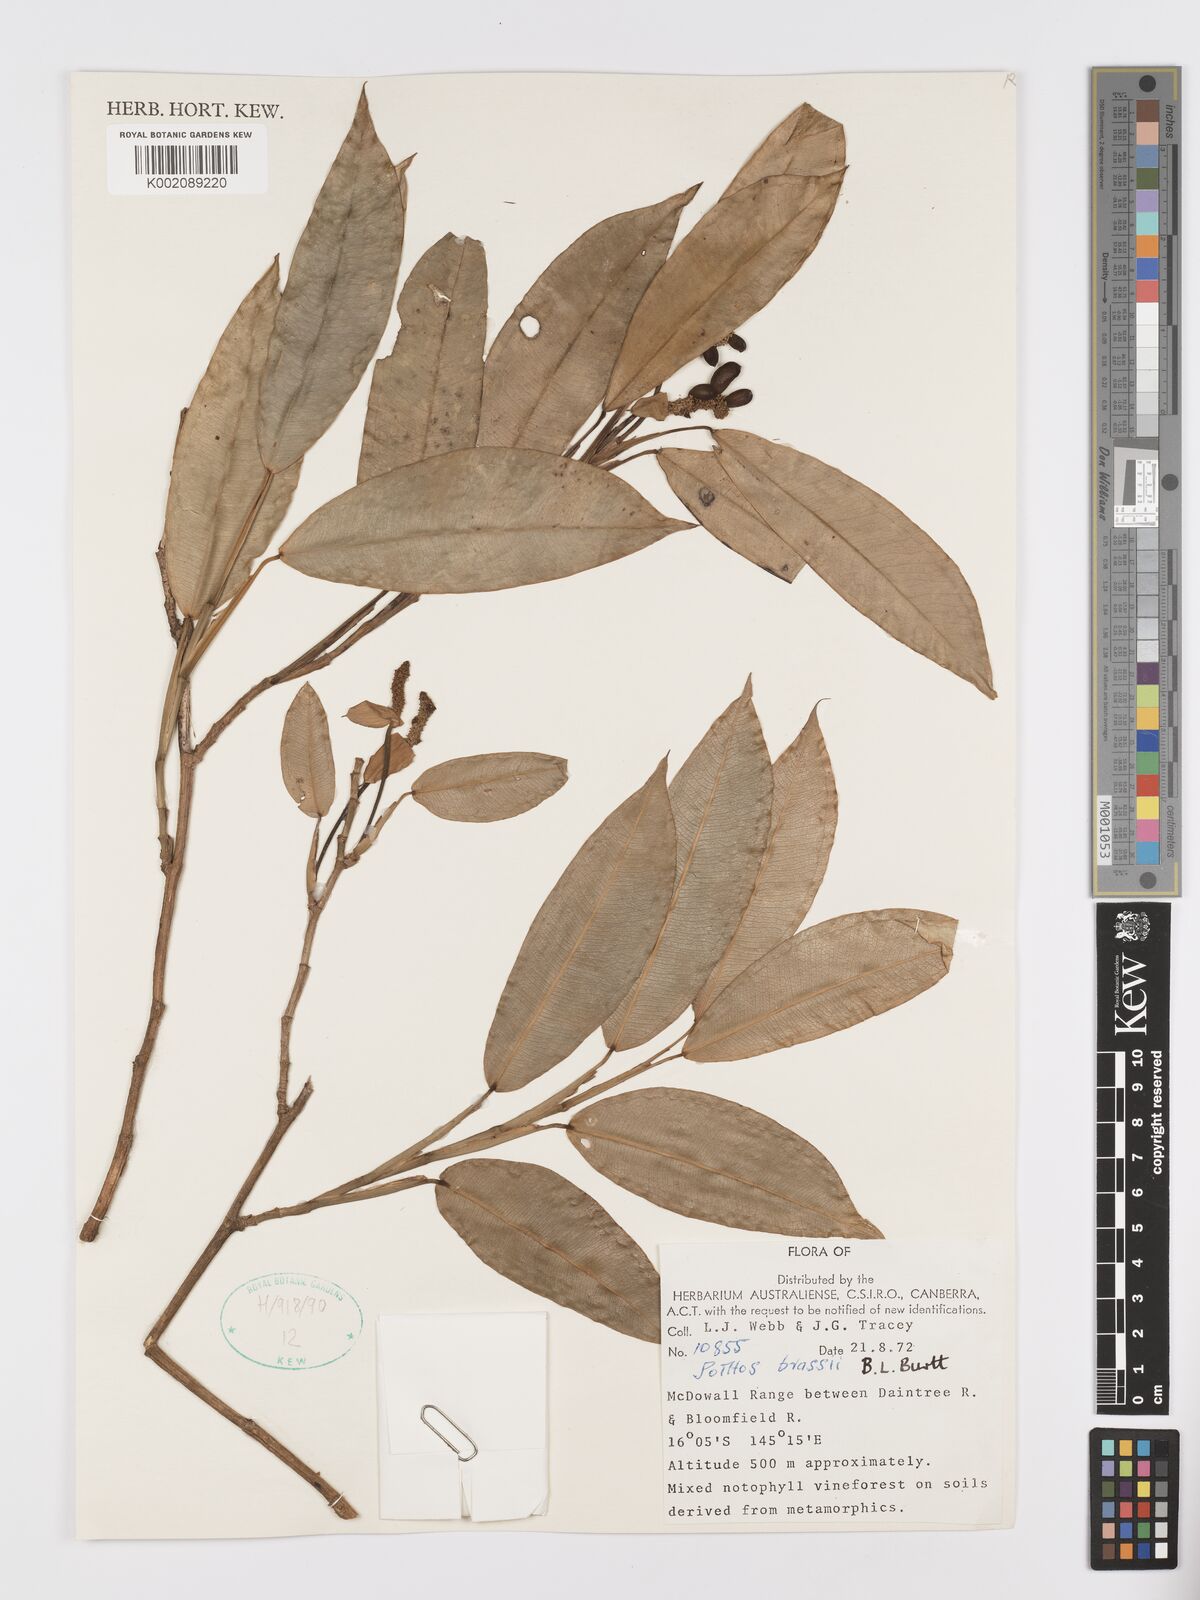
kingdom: Plantae
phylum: Tracheophyta
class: Liliopsida
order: Alismatales
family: Araceae
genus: Pothos
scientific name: Pothos brassii
